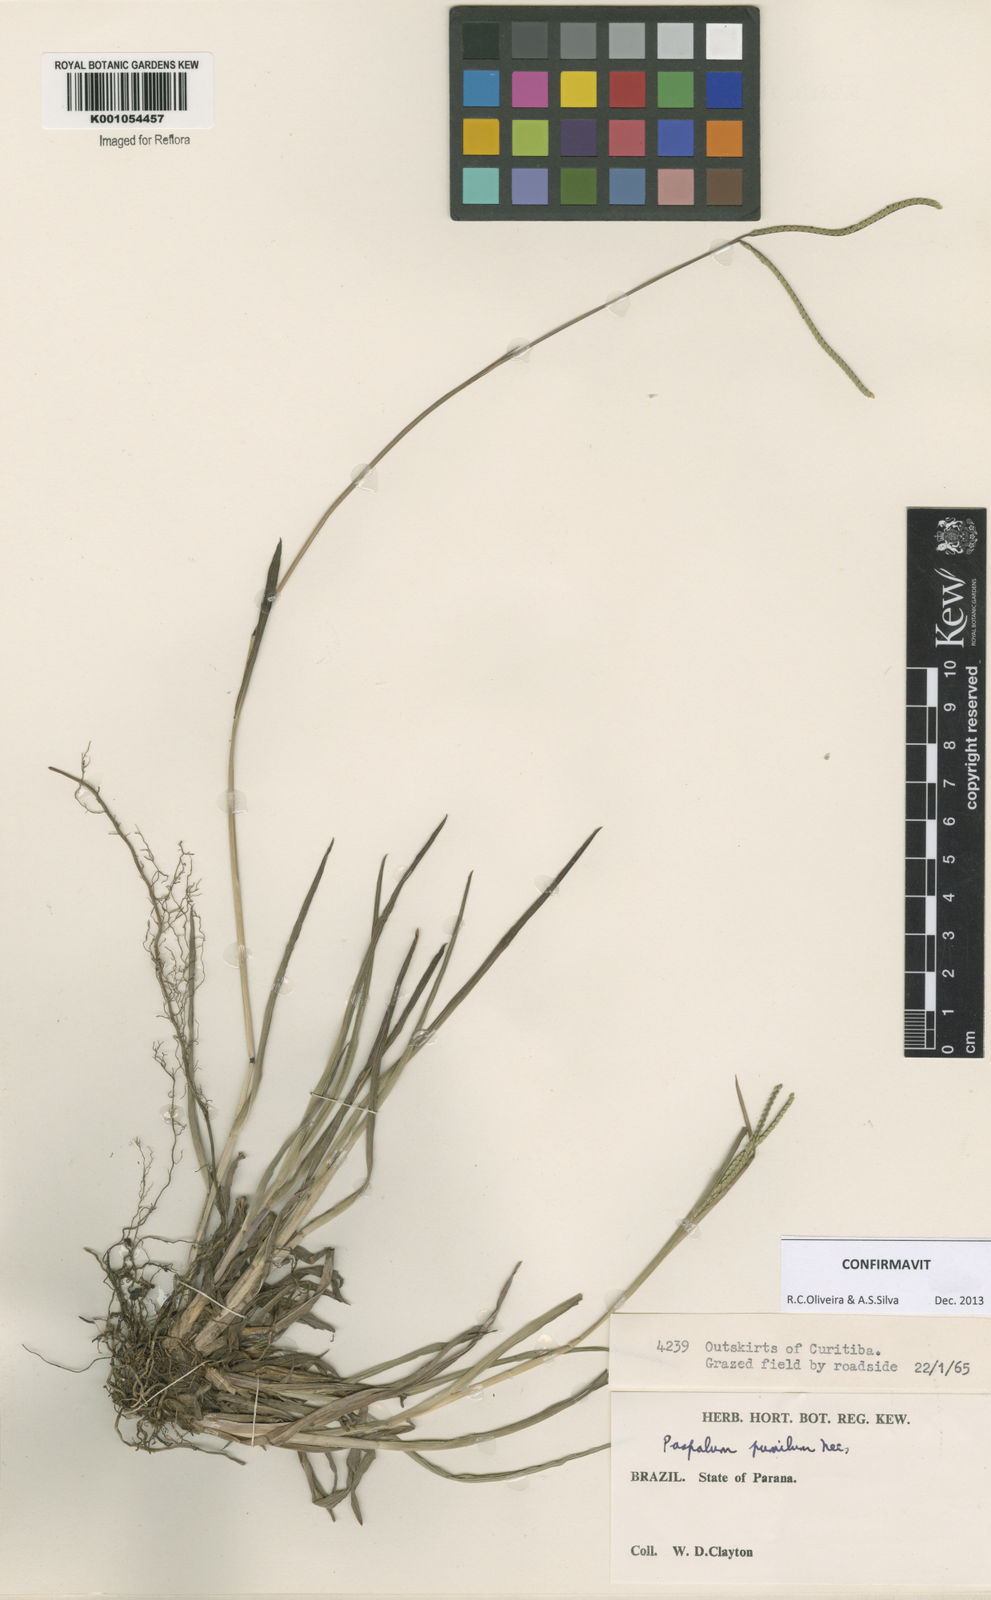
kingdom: Plantae
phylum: Tracheophyta
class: Liliopsida
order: Poales
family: Poaceae
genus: Paspalum
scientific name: Paspalum pumilum
